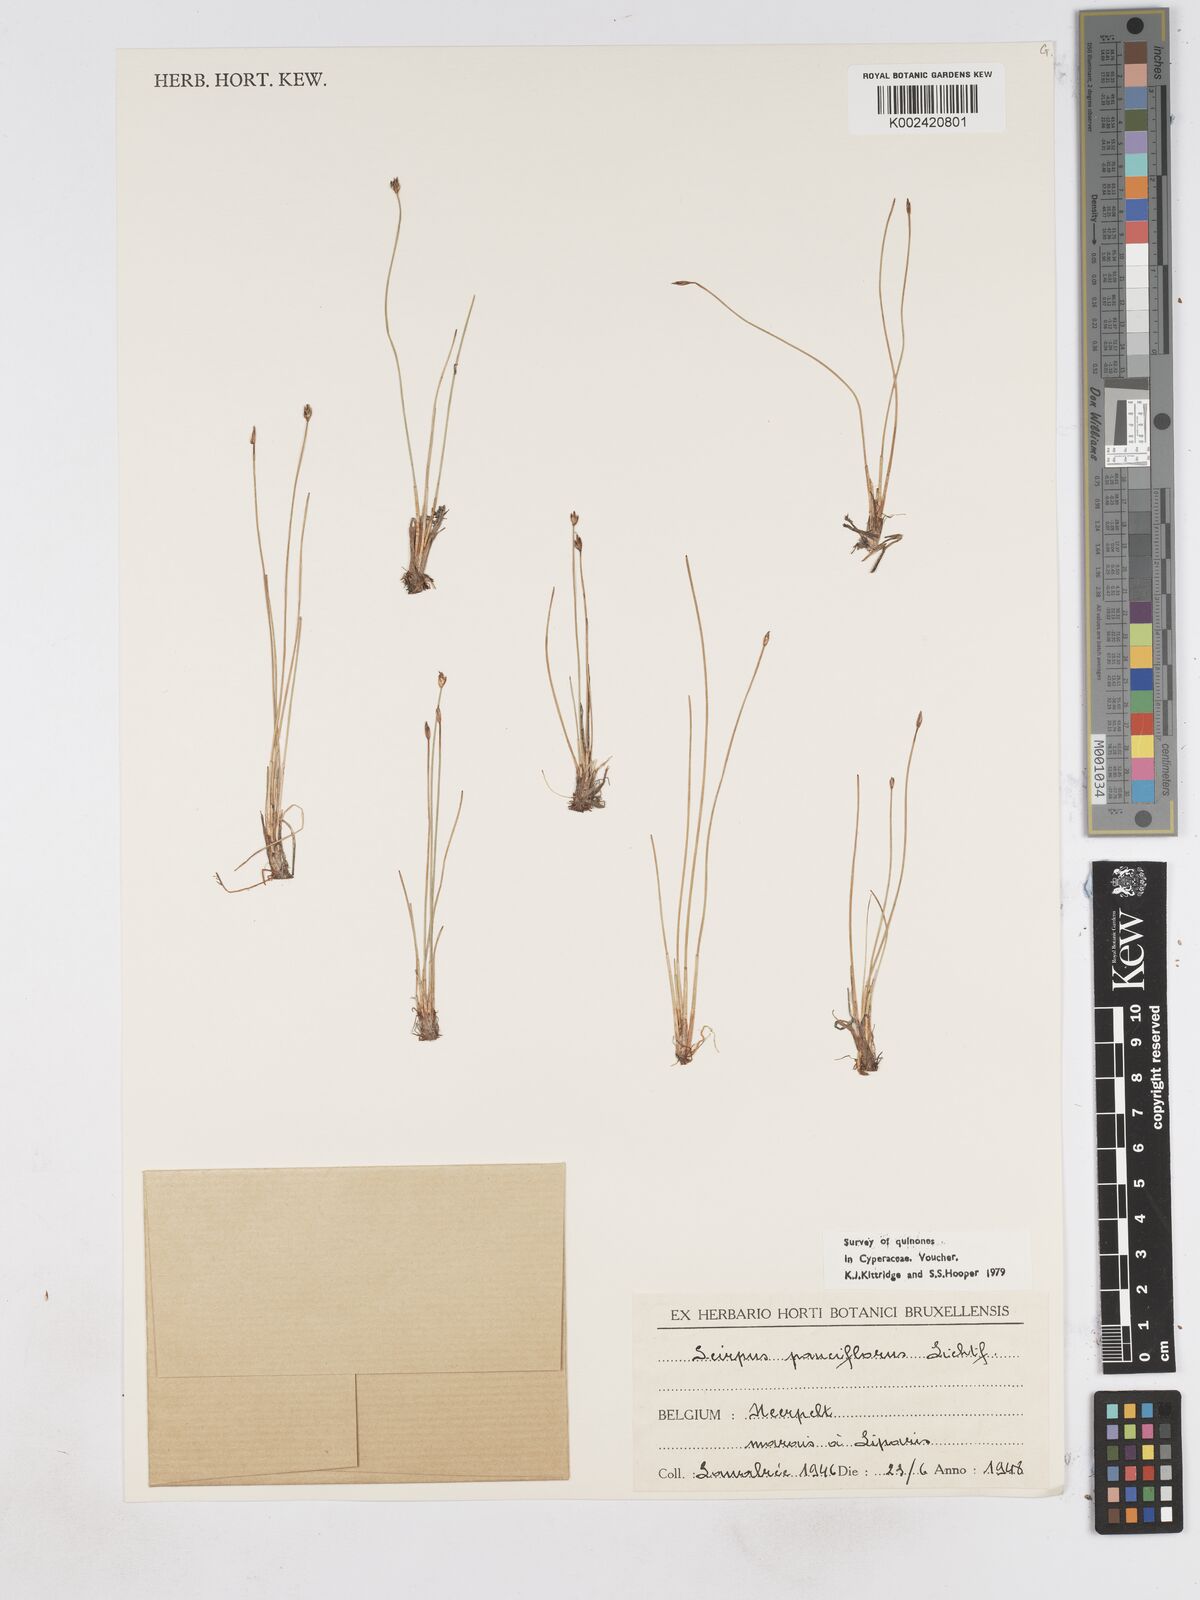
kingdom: Plantae
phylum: Tracheophyta
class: Liliopsida
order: Poales
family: Cyperaceae
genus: Eleocharis
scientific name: Eleocharis quinqueflora
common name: Few-flowered spike-rush
